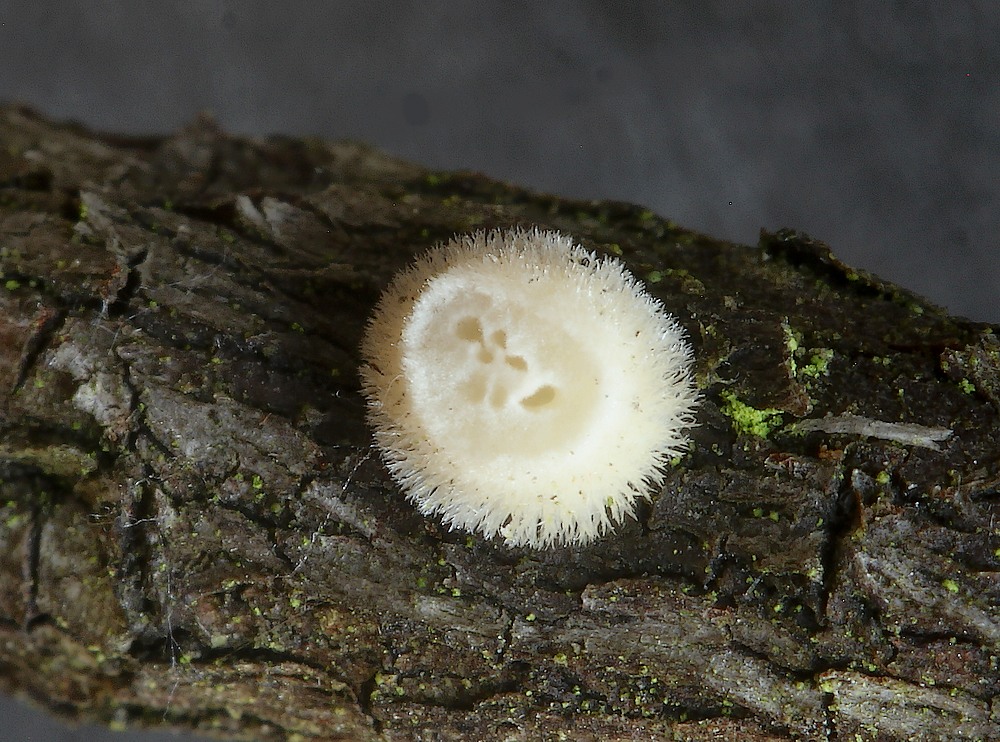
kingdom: Fungi
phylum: Basidiomycota
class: Agaricomycetes
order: Polyporales
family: Polyporaceae
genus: Trametes
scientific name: Trametes hirsuta
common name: håret læderporesvamp
